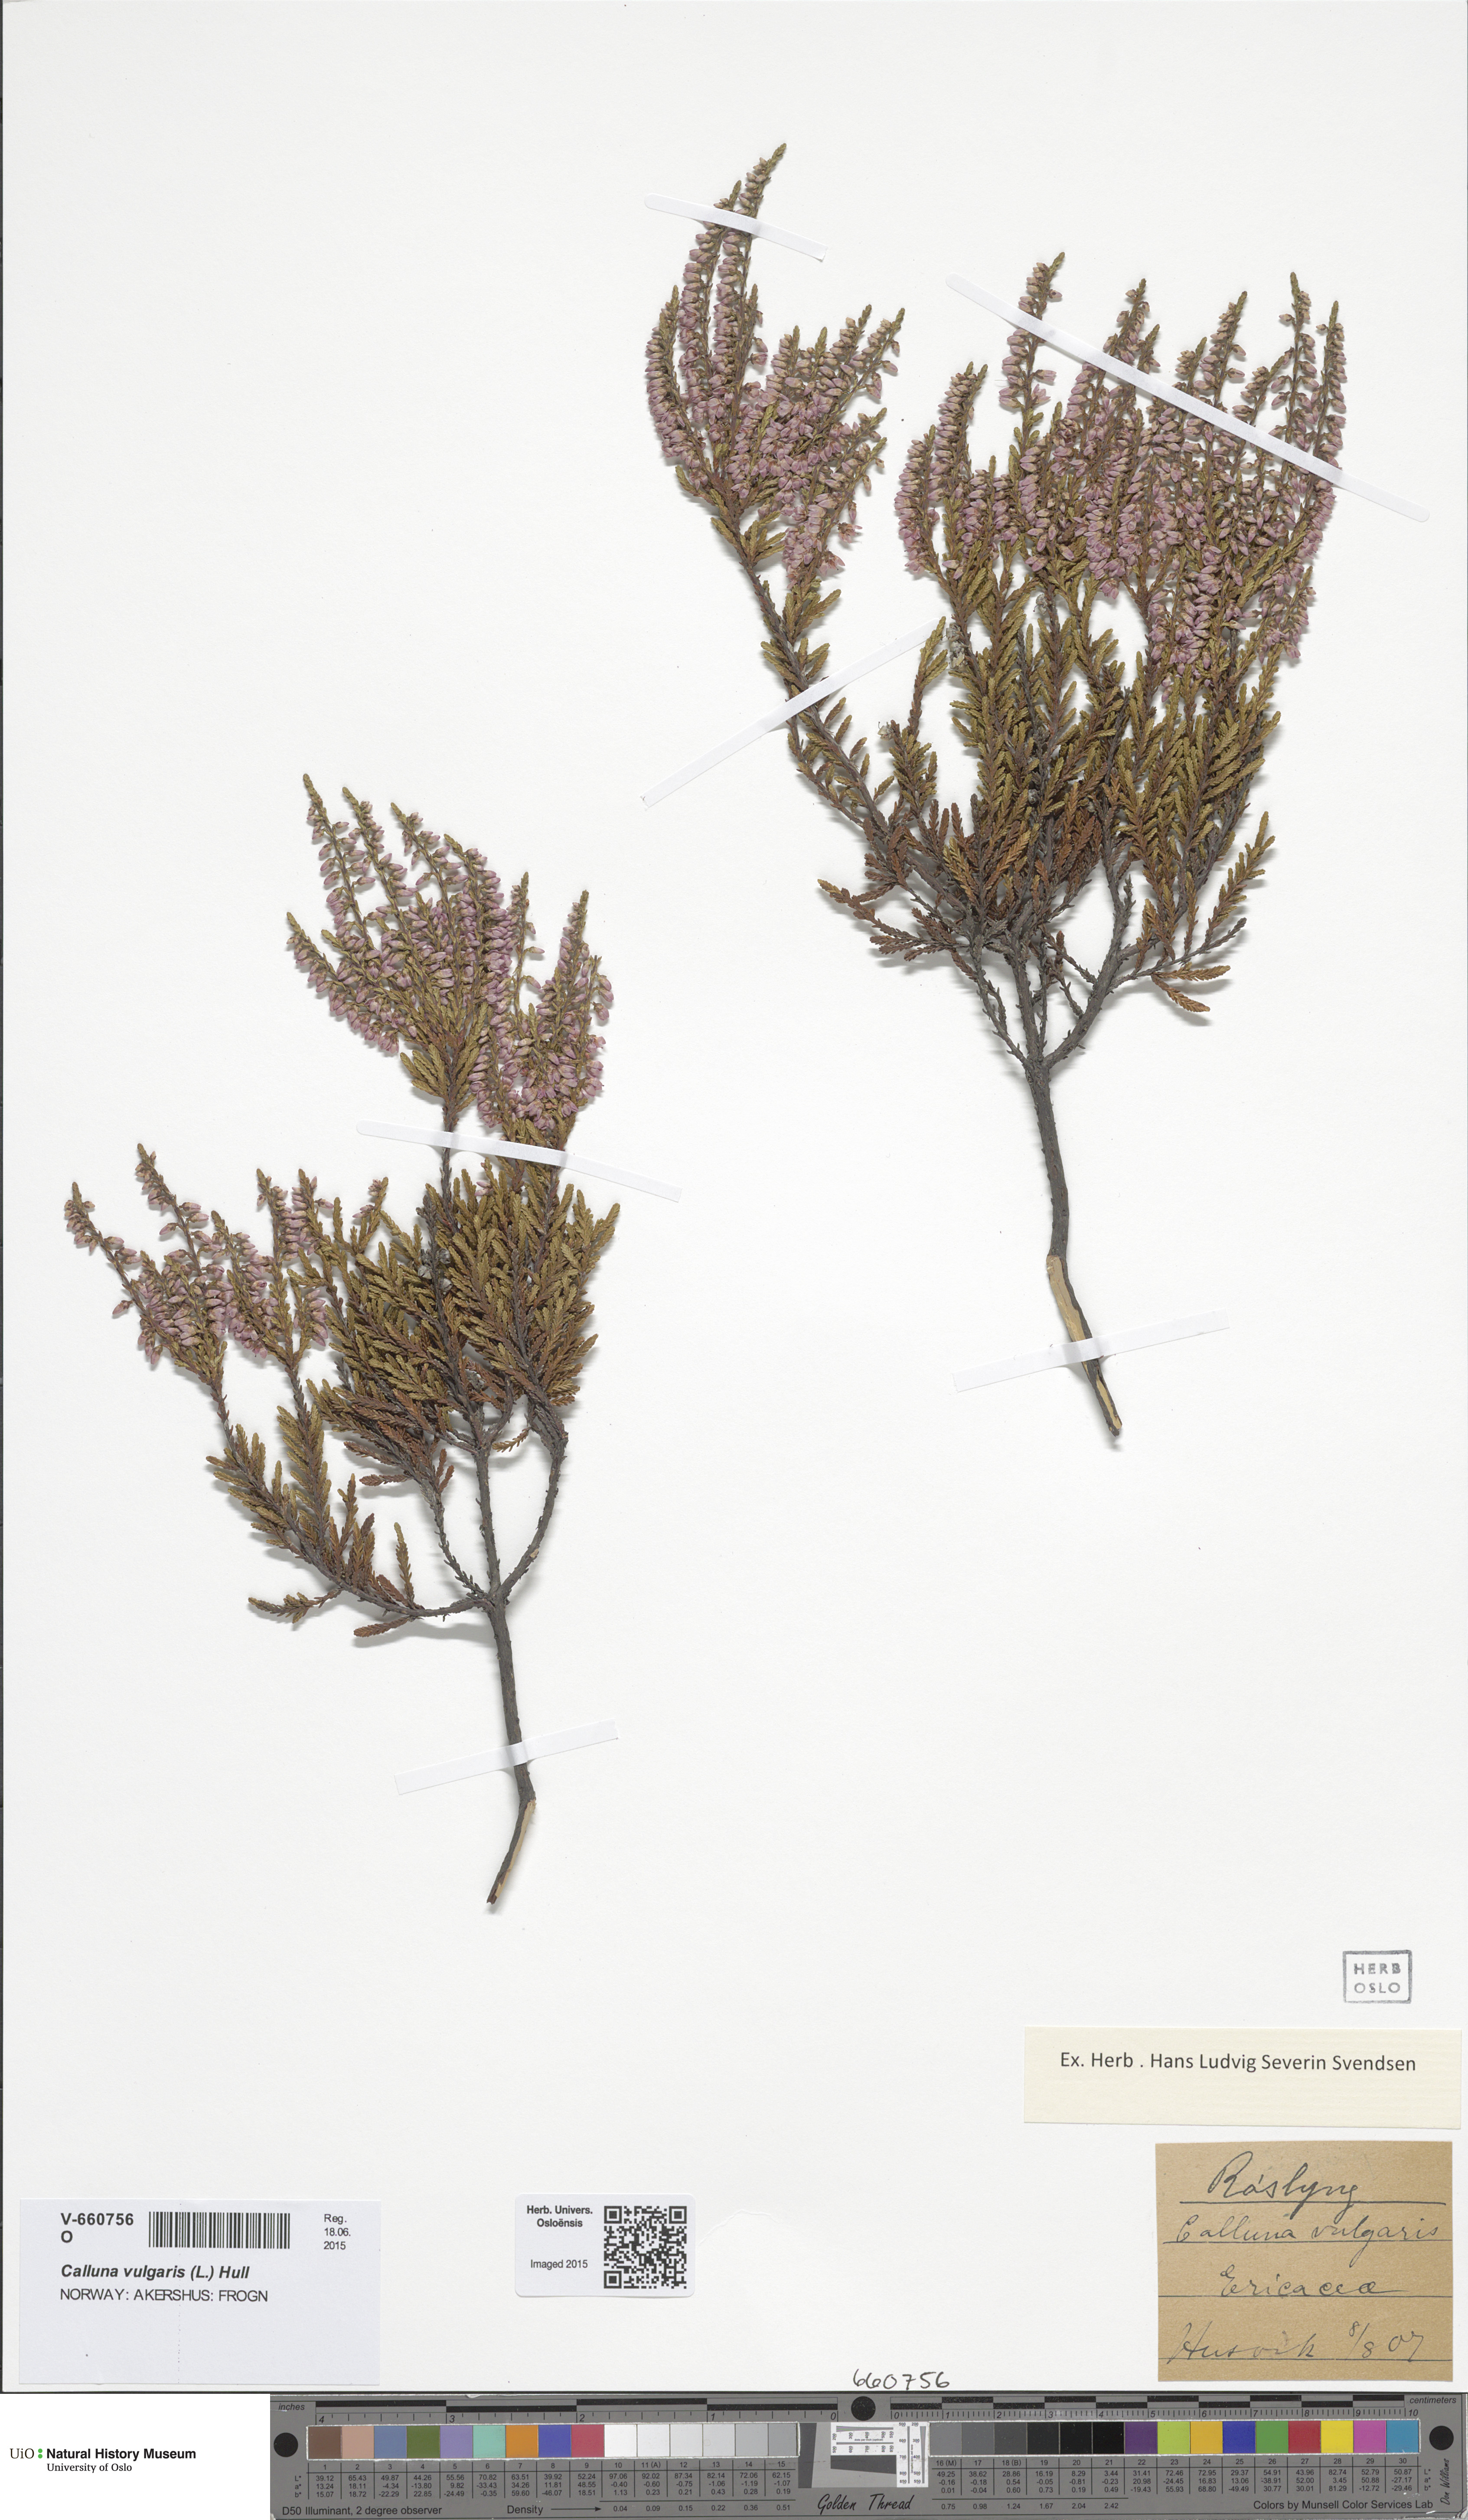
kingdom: Plantae
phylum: Tracheophyta
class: Magnoliopsida
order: Ericales
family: Ericaceae
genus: Calluna
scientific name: Calluna vulgaris
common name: Heather
